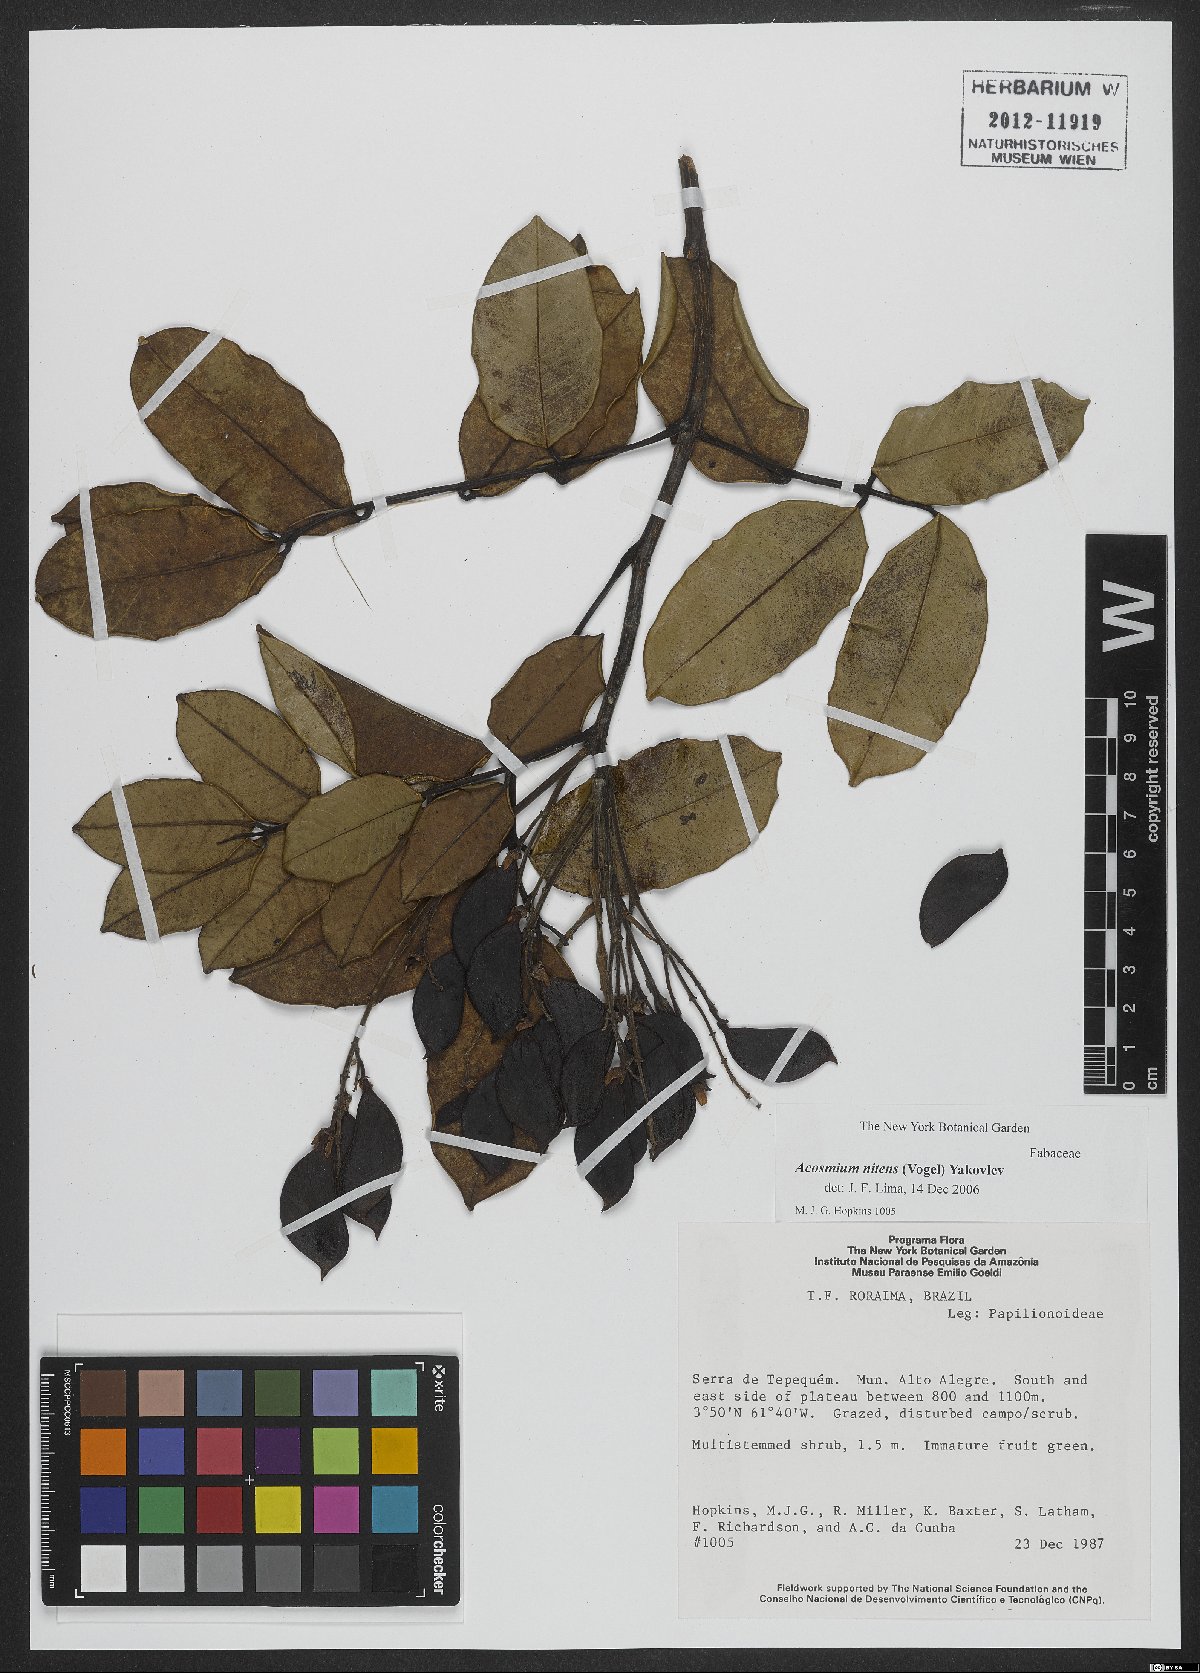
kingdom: Plantae
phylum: Tracheophyta
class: Magnoliopsida
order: Fabales
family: Fabaceae
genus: Leptolobium
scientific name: Leptolobium nitens
